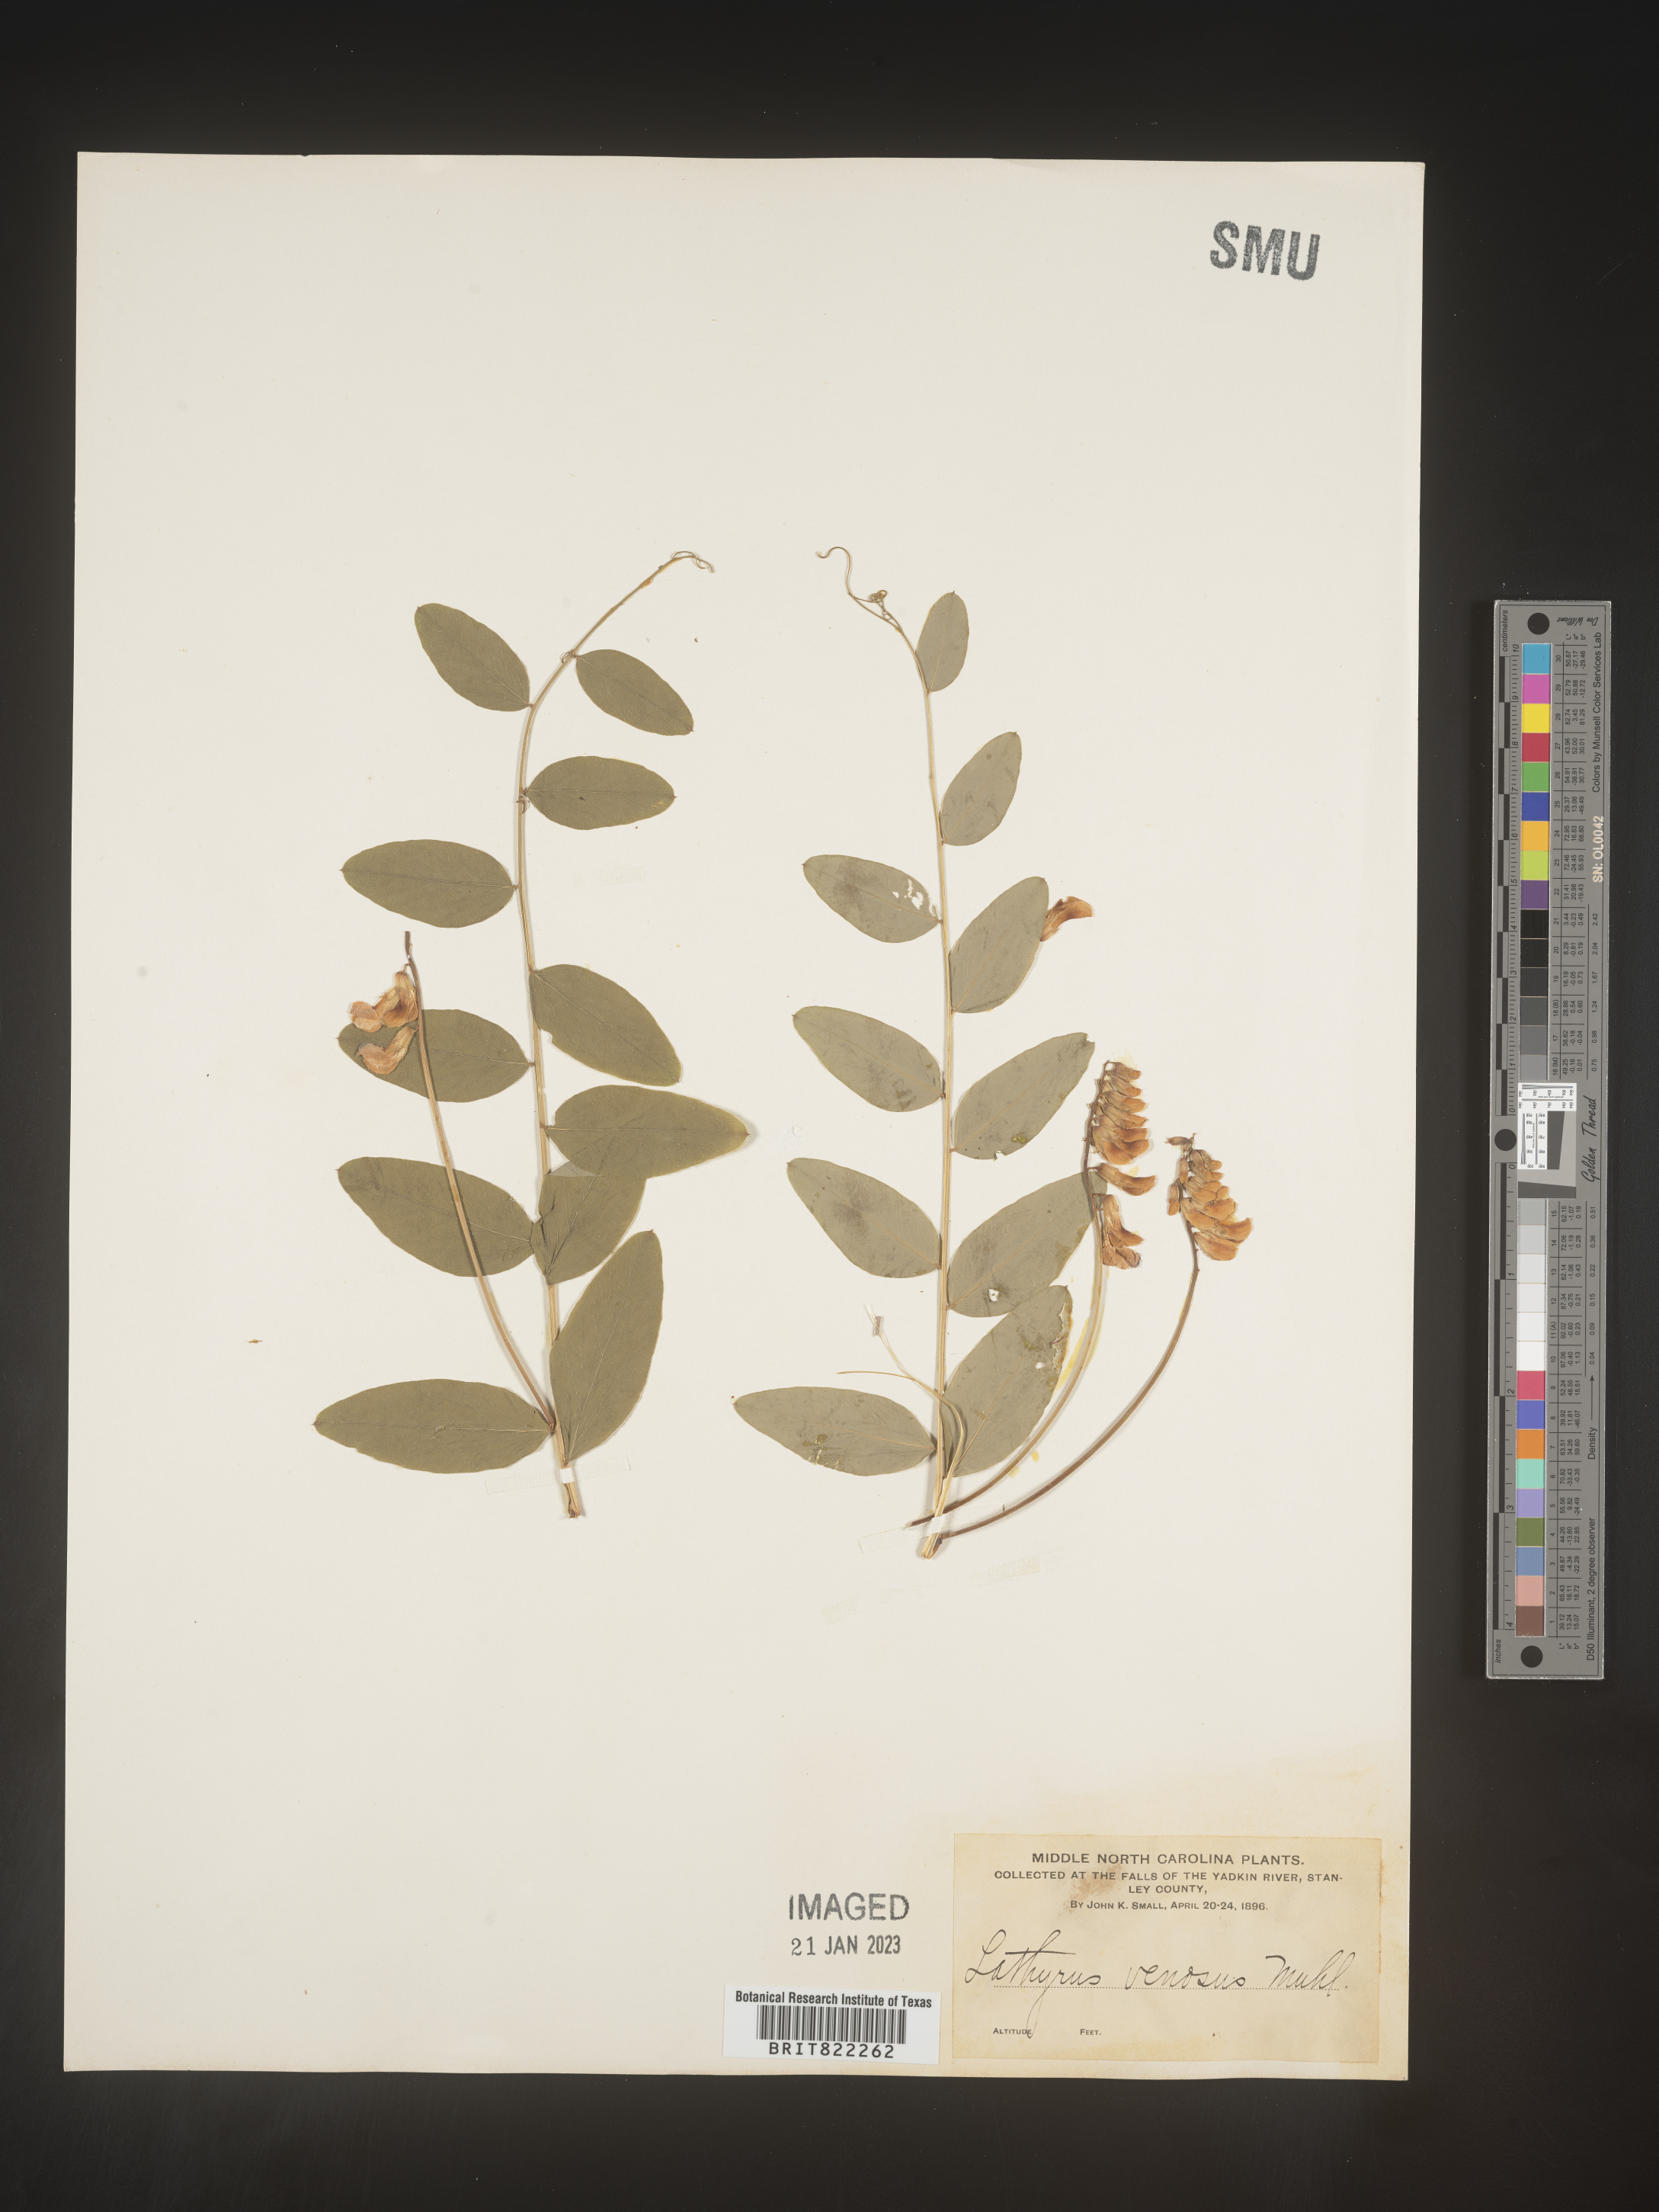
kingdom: Plantae
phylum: Tracheophyta
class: Magnoliopsida
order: Fabales
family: Fabaceae
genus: Lathyrus
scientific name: Lathyrus venosus
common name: Forest-pea
